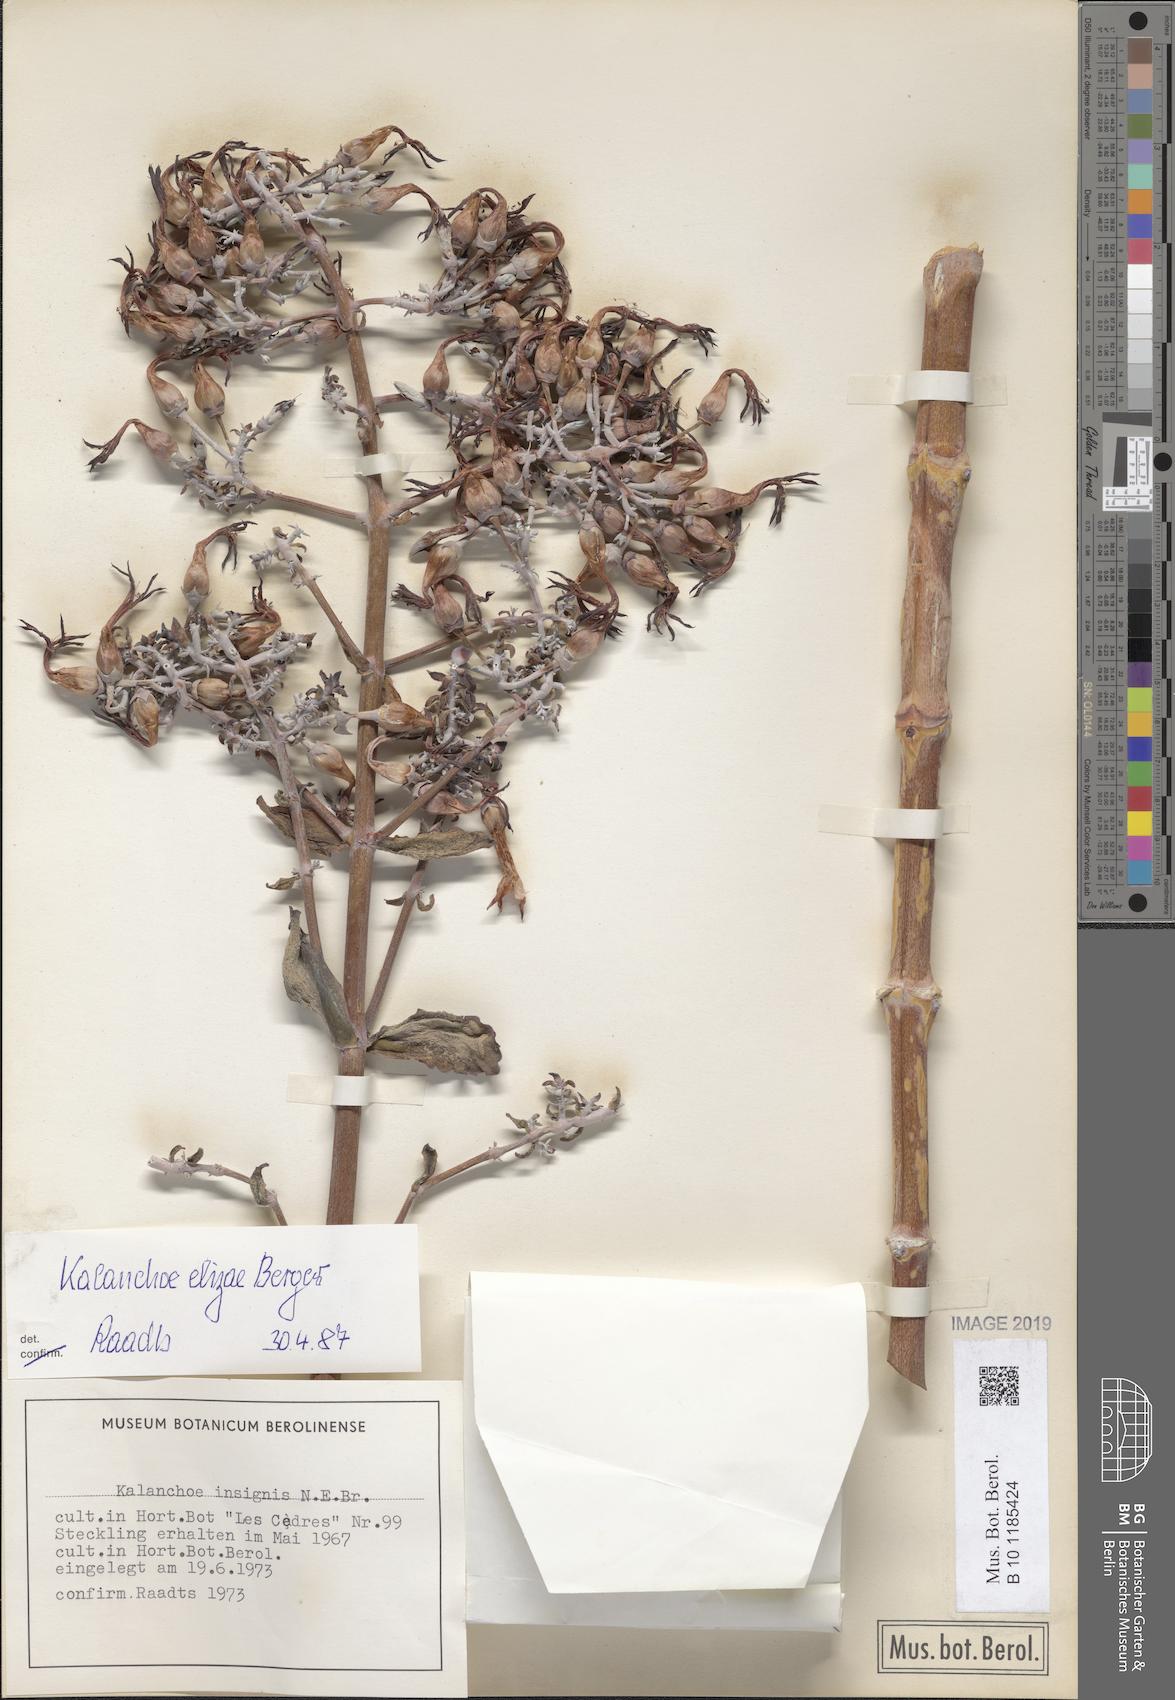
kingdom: Plantae
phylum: Tracheophyta
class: Magnoliopsida
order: Saxifragales
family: Crassulaceae
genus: Kalanchoe
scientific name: Kalanchoe elizae
